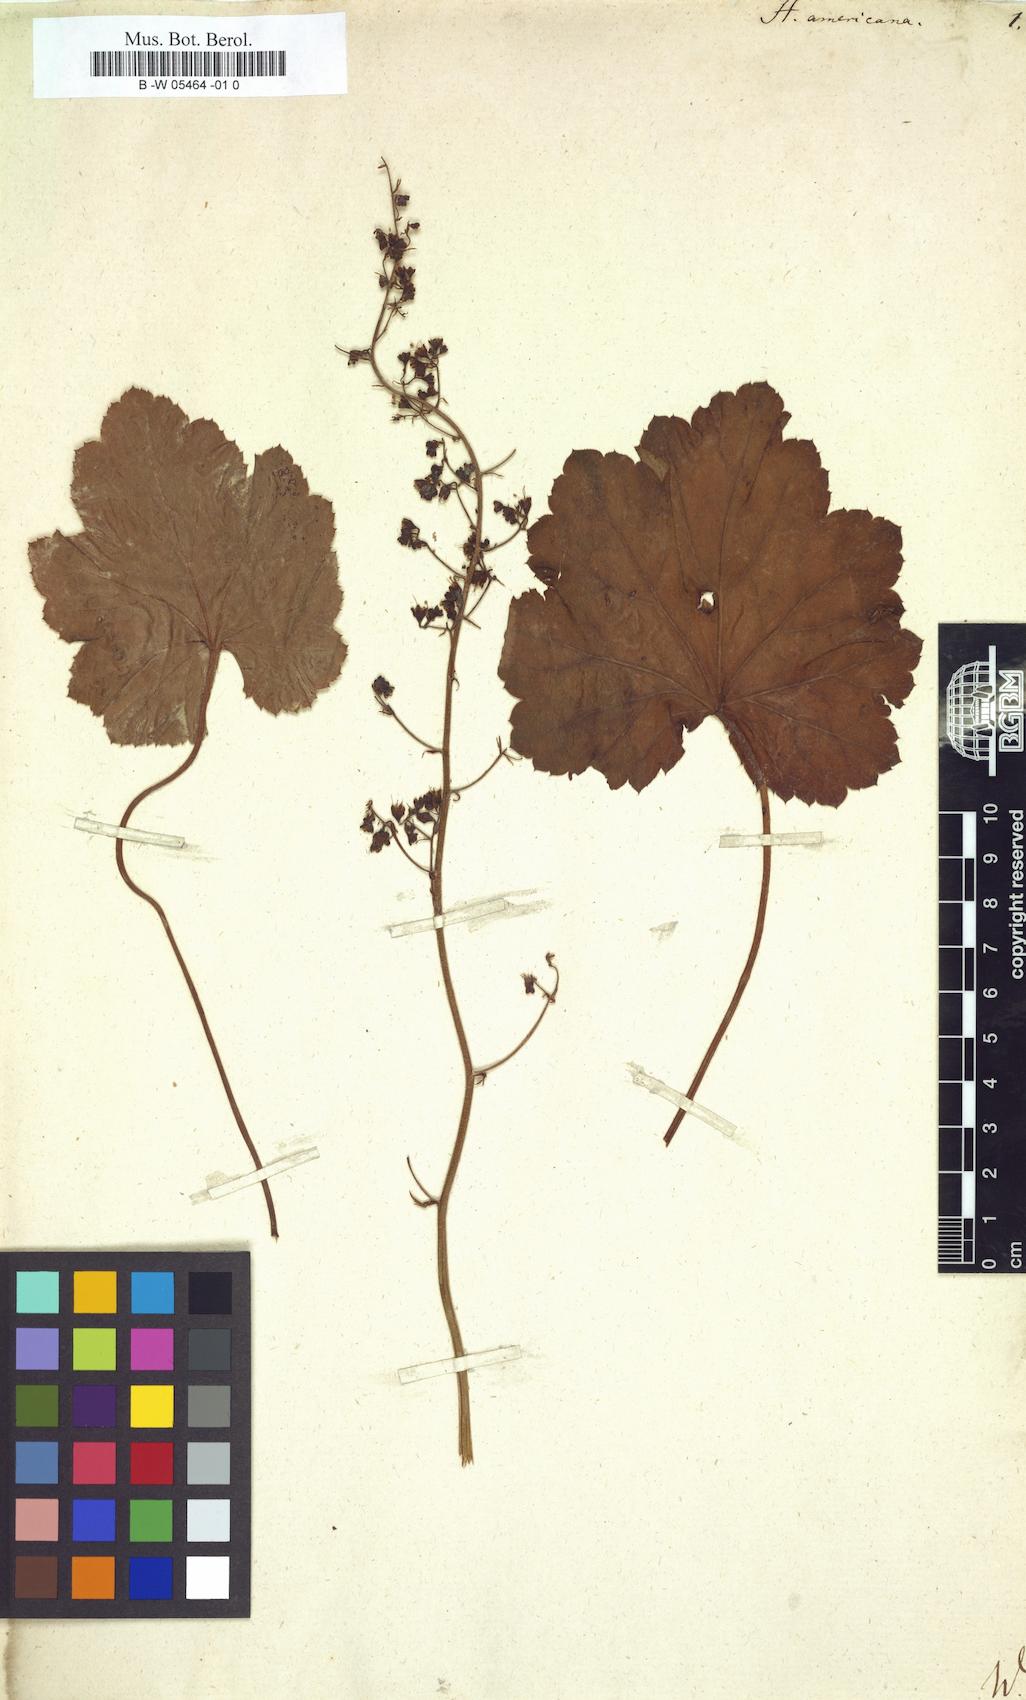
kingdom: Plantae
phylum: Tracheophyta
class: Magnoliopsida
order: Saxifragales
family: Saxifragaceae
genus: Heuchera
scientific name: Heuchera americana
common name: Alumroot
